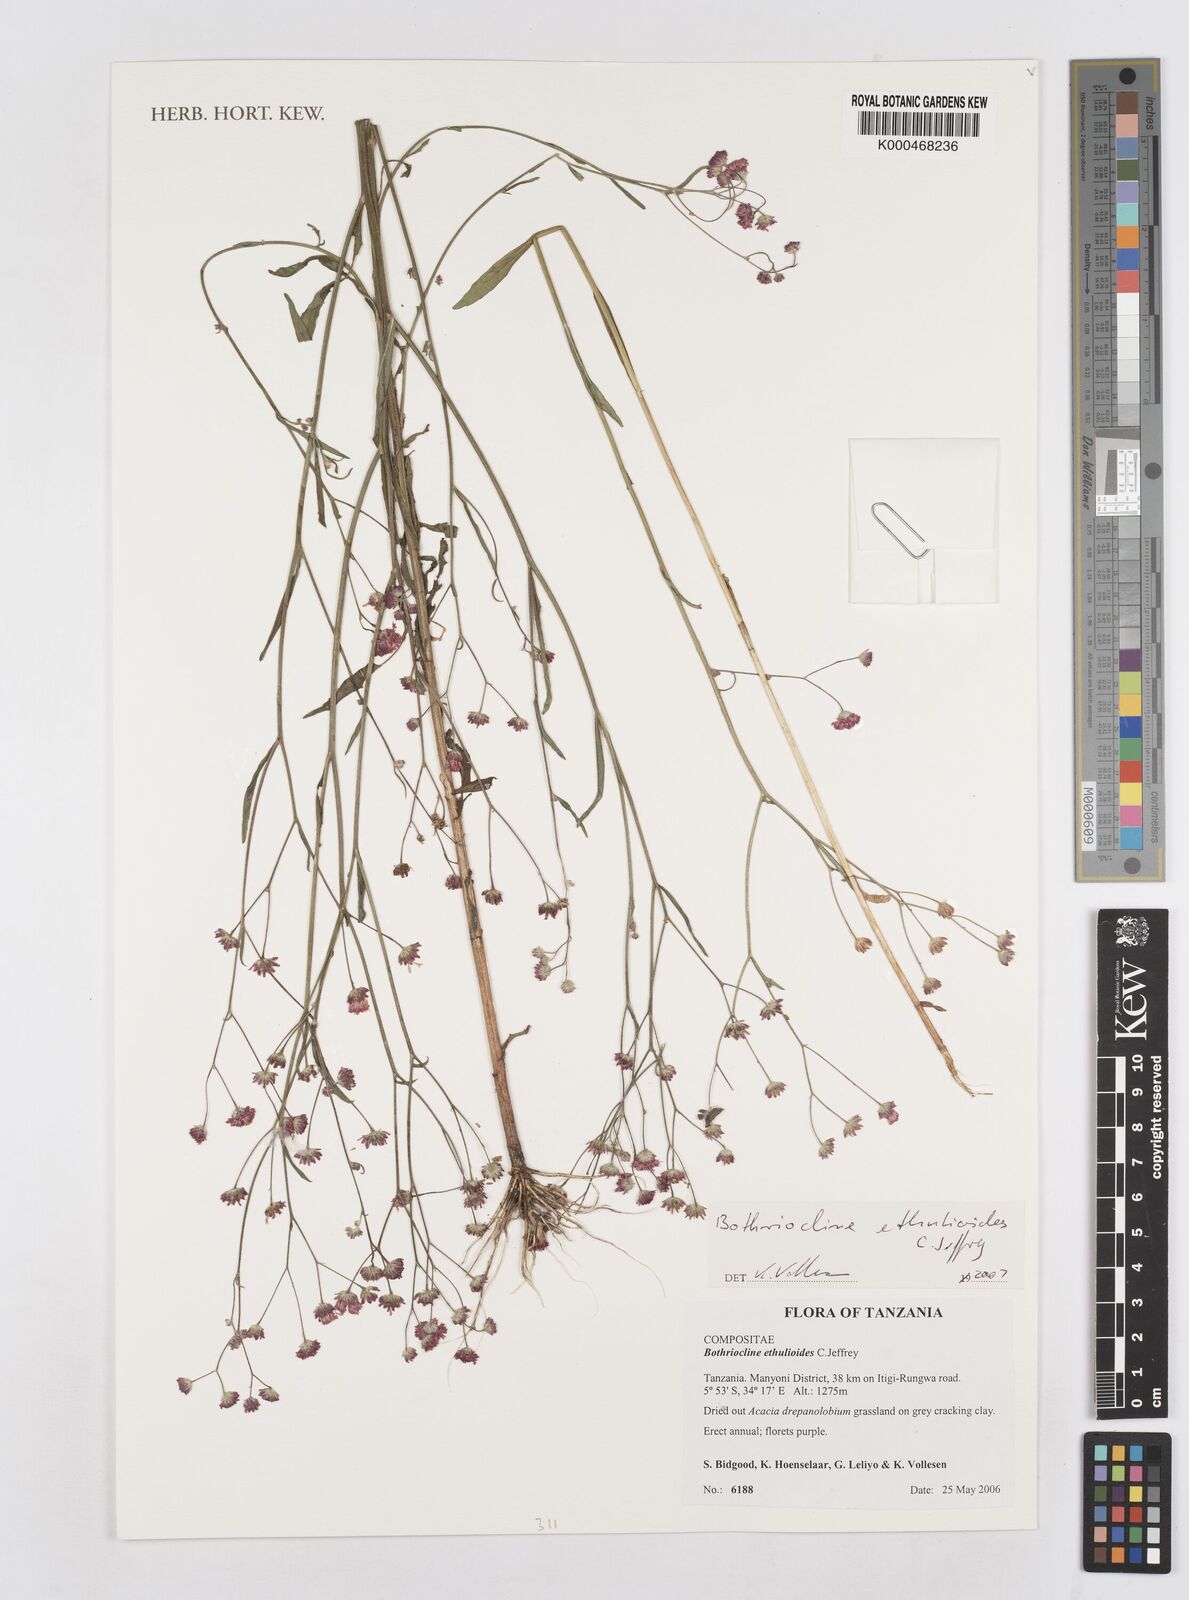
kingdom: Plantae
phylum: Tracheophyta
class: Magnoliopsida
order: Asterales
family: Asteraceae
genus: Bothriocline
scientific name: Bothriocline ethulioides
